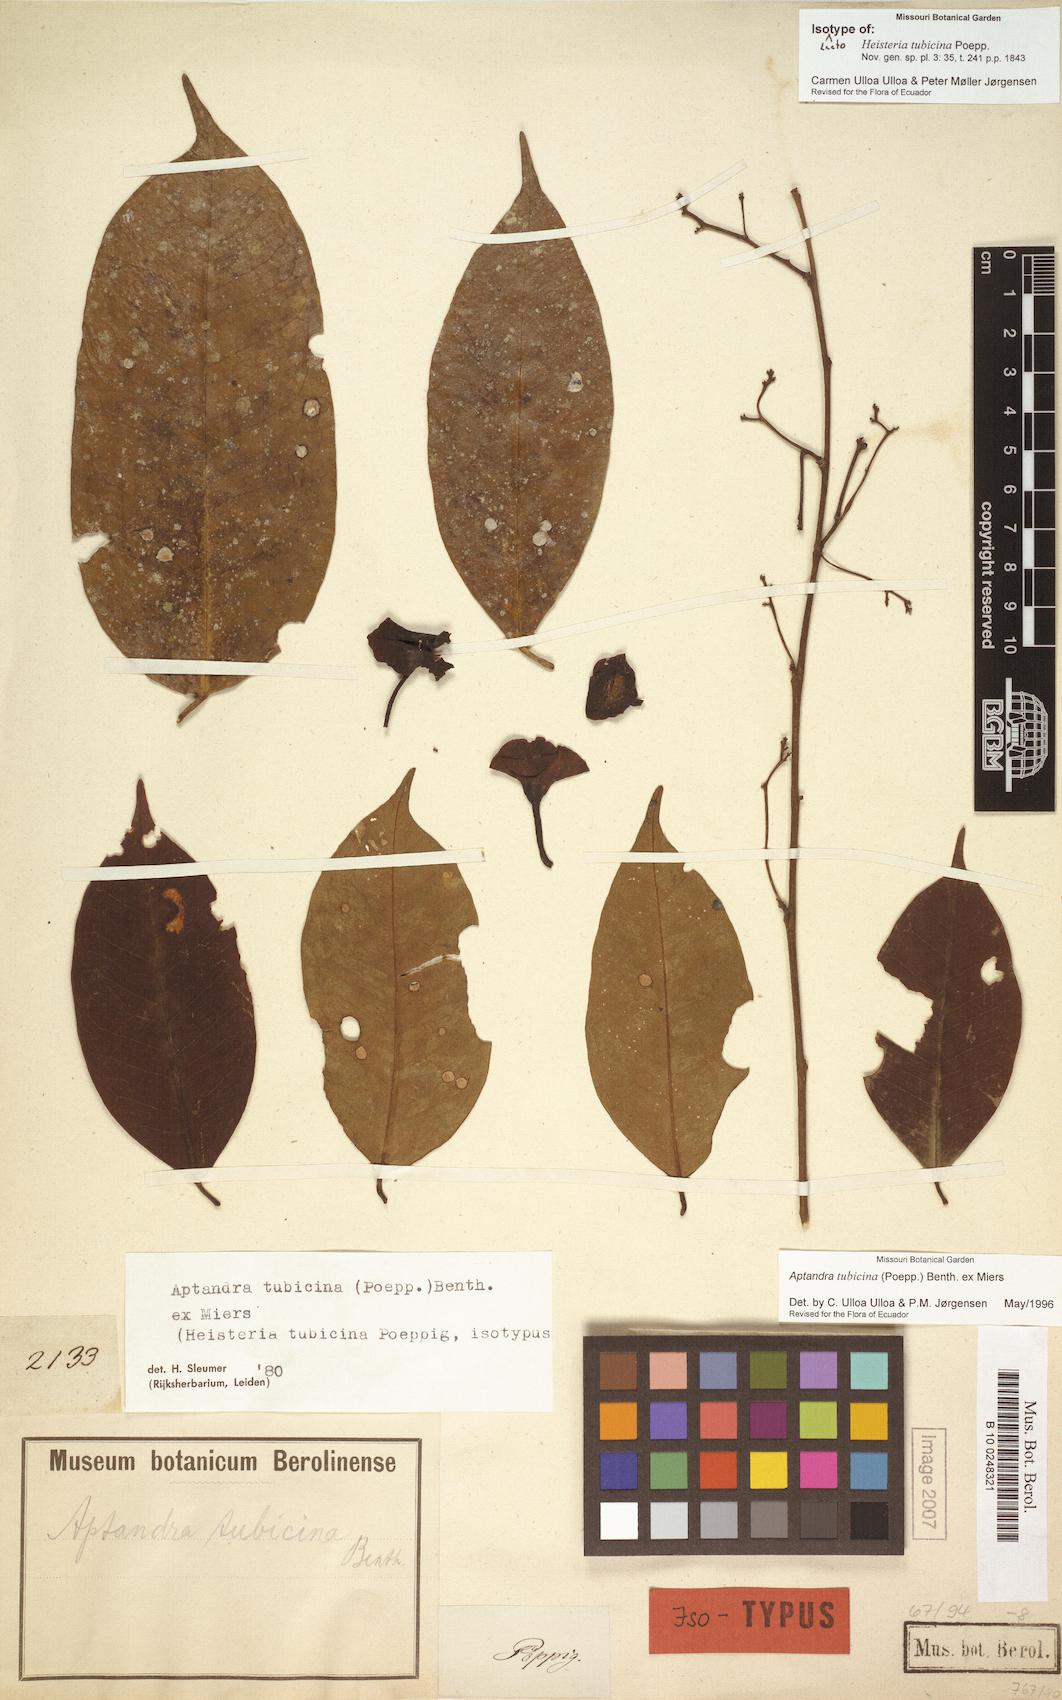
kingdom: Plantae
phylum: Tracheophyta
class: Magnoliopsida
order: Santalales
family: Aptandraceae
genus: Aptandra
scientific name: Aptandra tubicina
